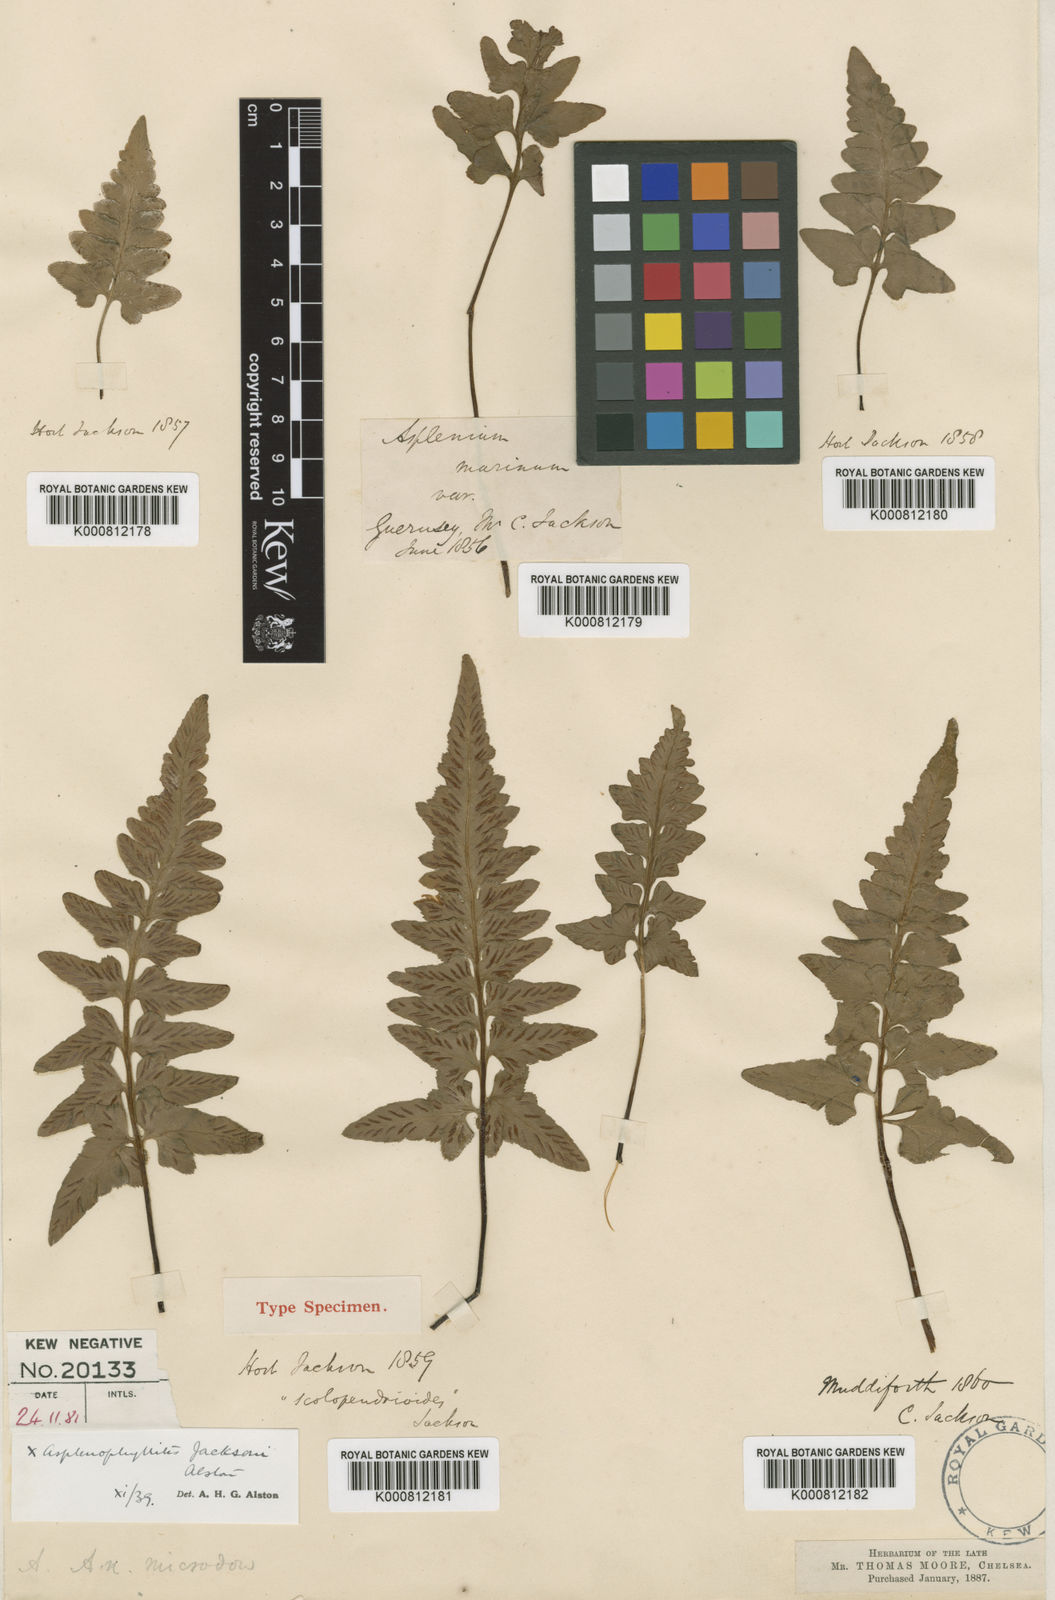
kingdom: Plantae
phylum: Tracheophyta
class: Polypodiopsida
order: Polypodiales
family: Aspleniaceae
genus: Asplenium
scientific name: Asplenium jacksonii
